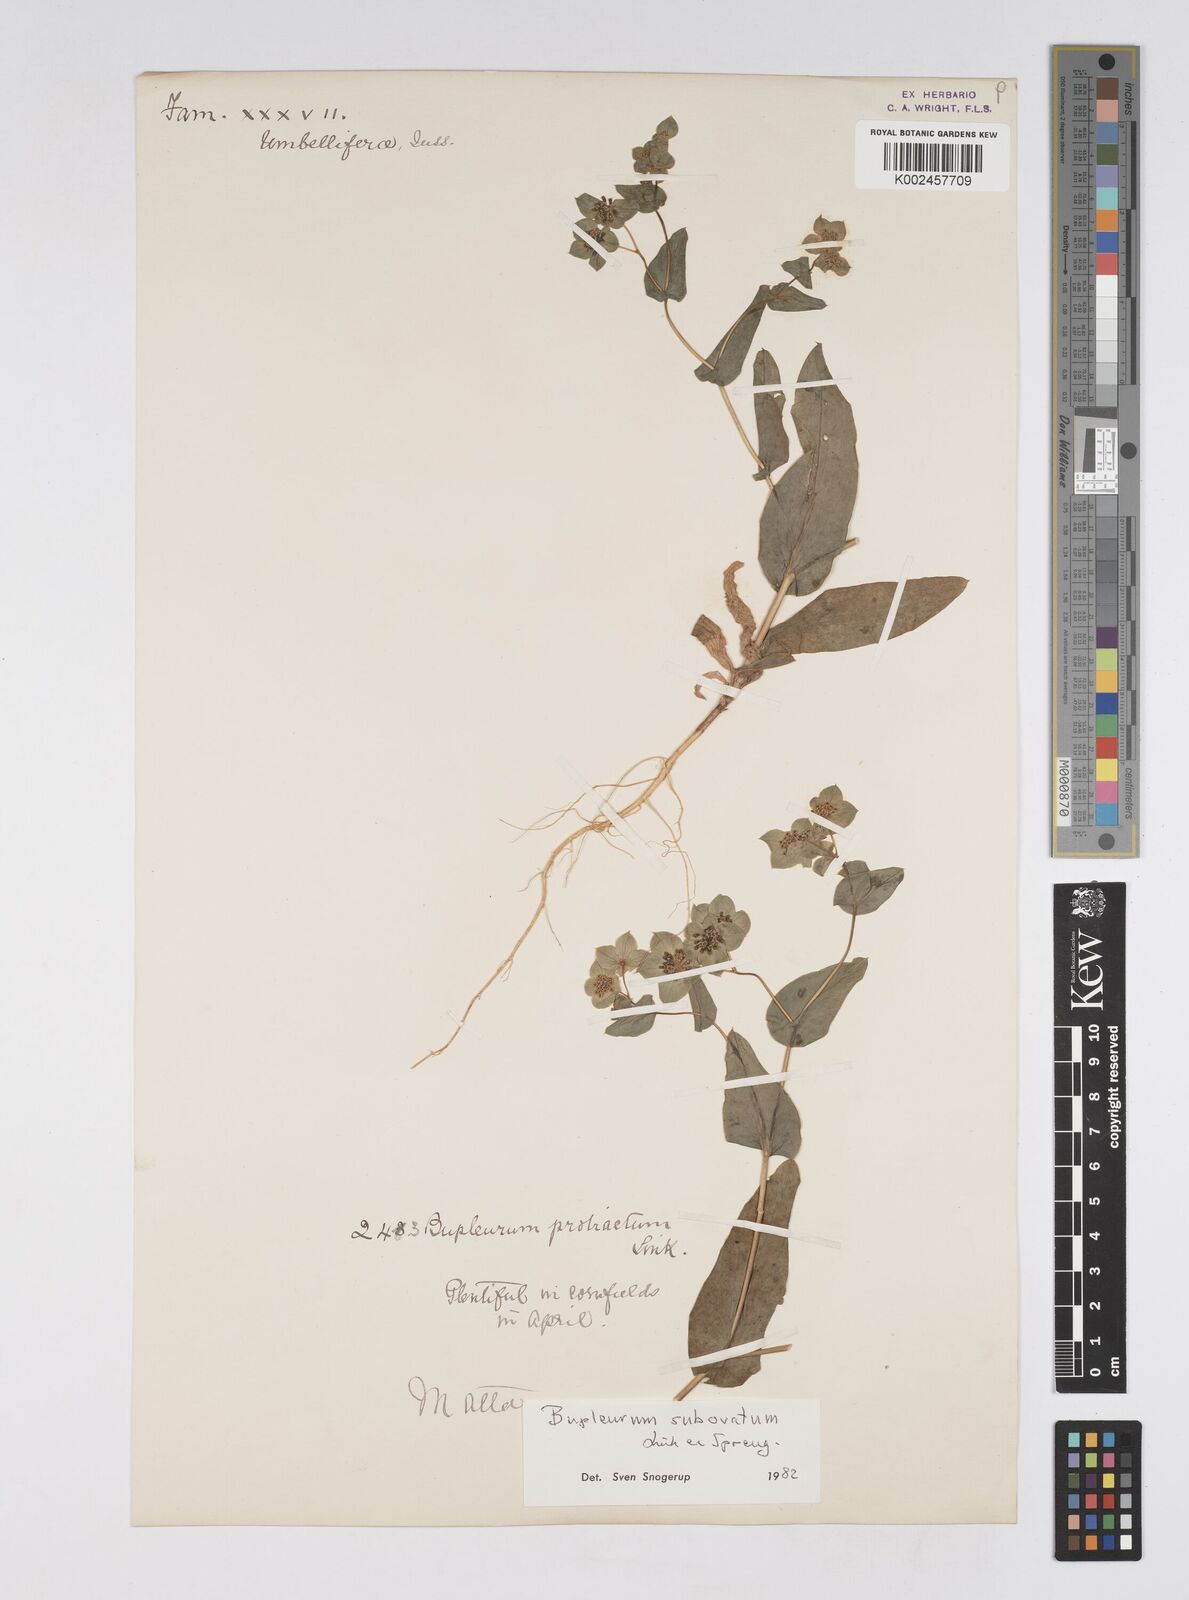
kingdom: Plantae
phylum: Tracheophyta
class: Magnoliopsida
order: Apiales
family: Apiaceae
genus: Bupleurum
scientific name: Bupleurum lancifolium
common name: False thorow-wax
